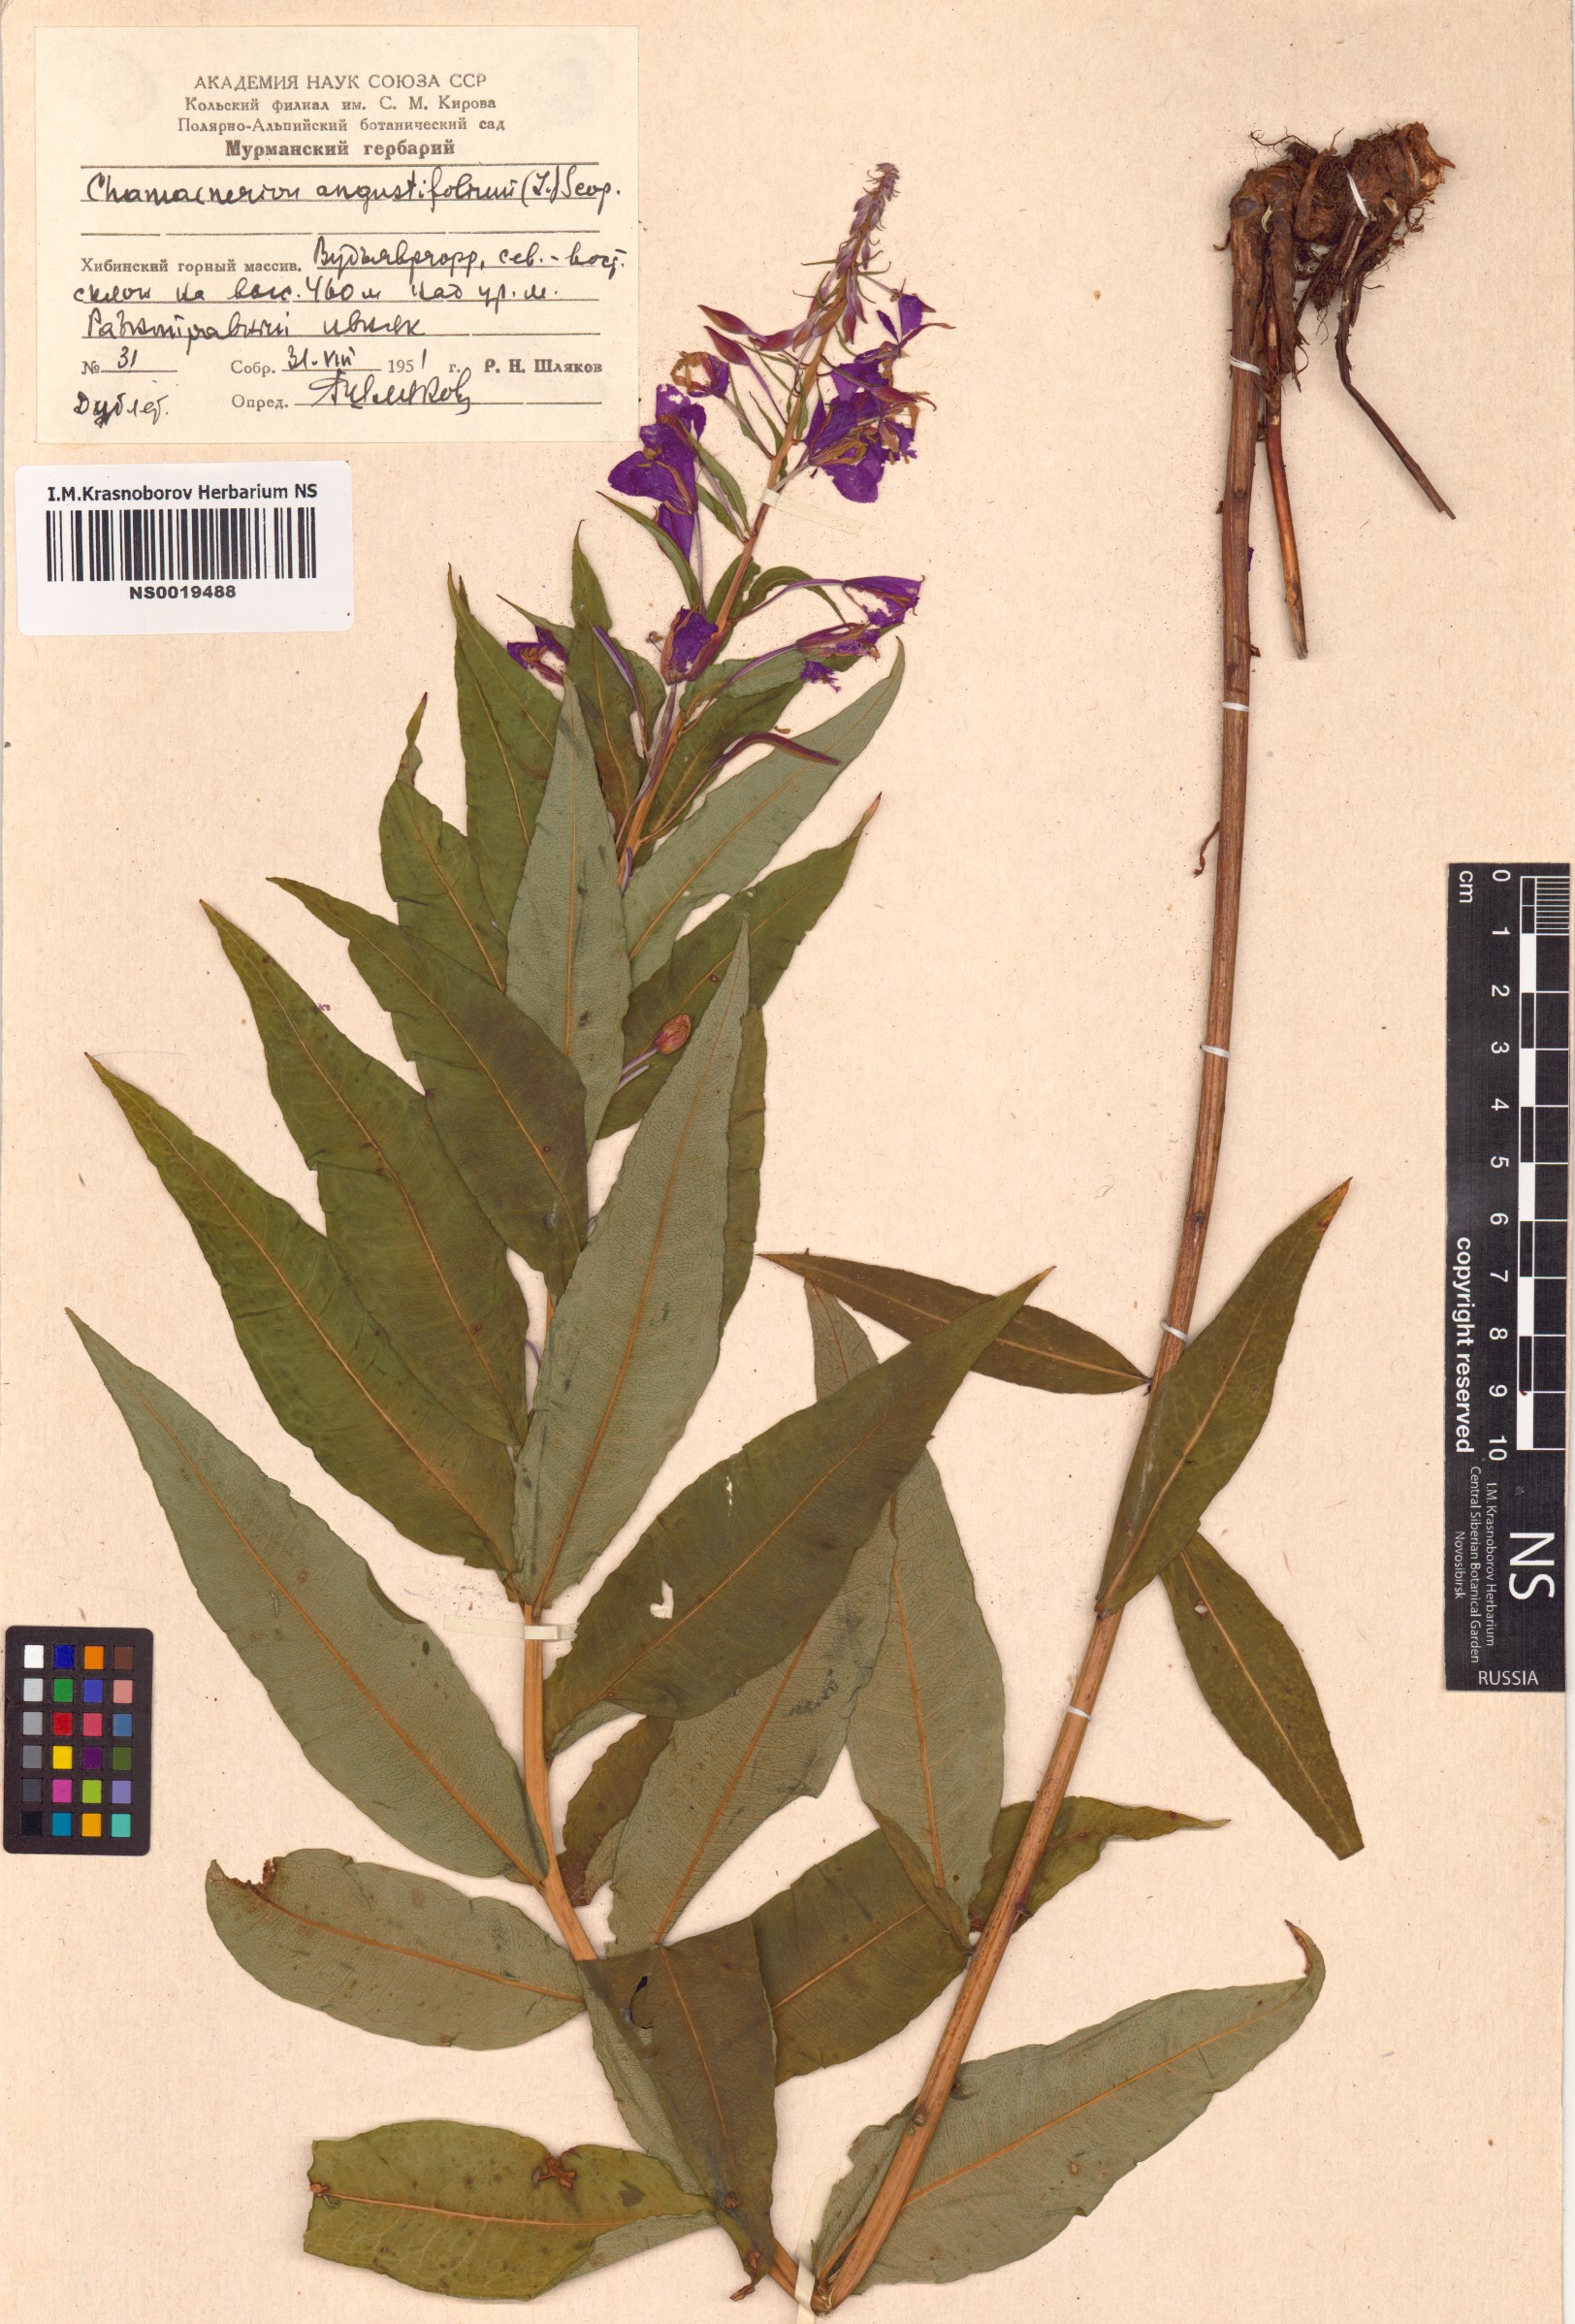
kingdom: Plantae
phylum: Tracheophyta
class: Magnoliopsida
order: Myrtales
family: Onagraceae
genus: Chamaenerion
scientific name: Chamaenerion angustifolium
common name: Fireweed
